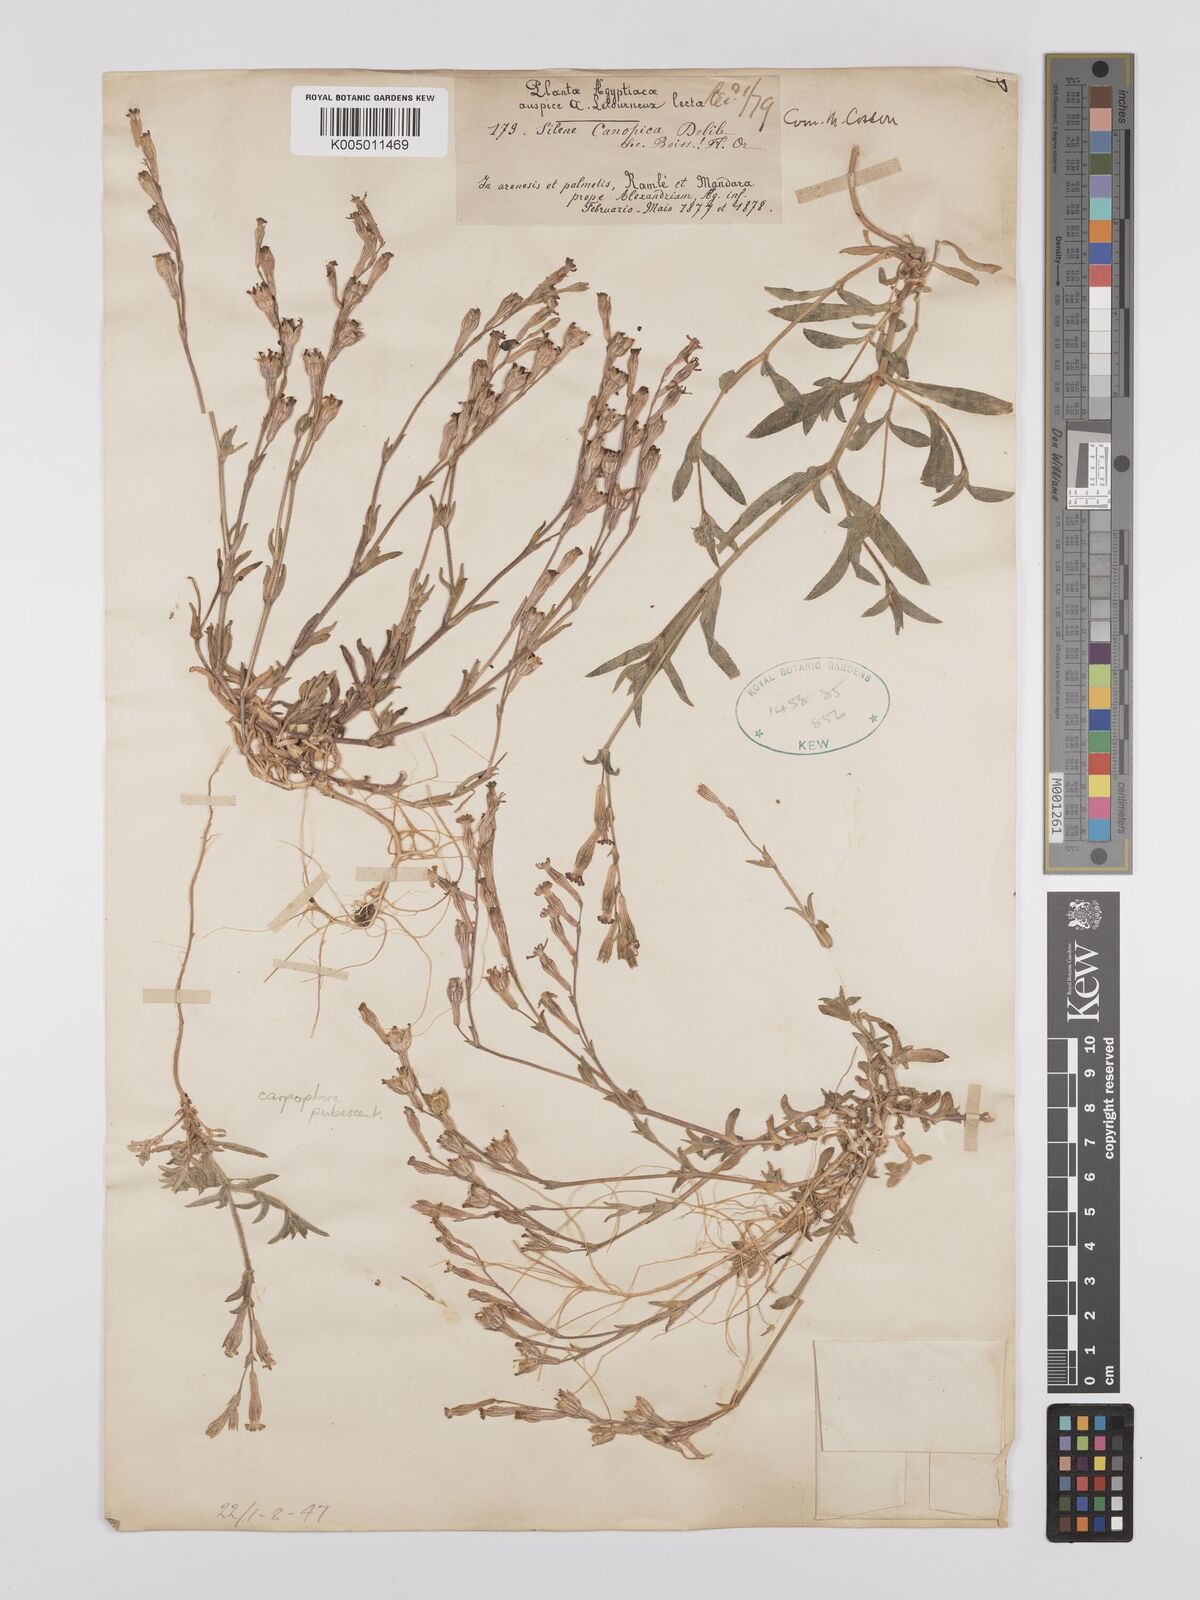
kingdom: Plantae
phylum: Tracheophyta
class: Magnoliopsida
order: Caryophyllales
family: Caryophyllaceae
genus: Silene
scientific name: Silene biappendiculata
